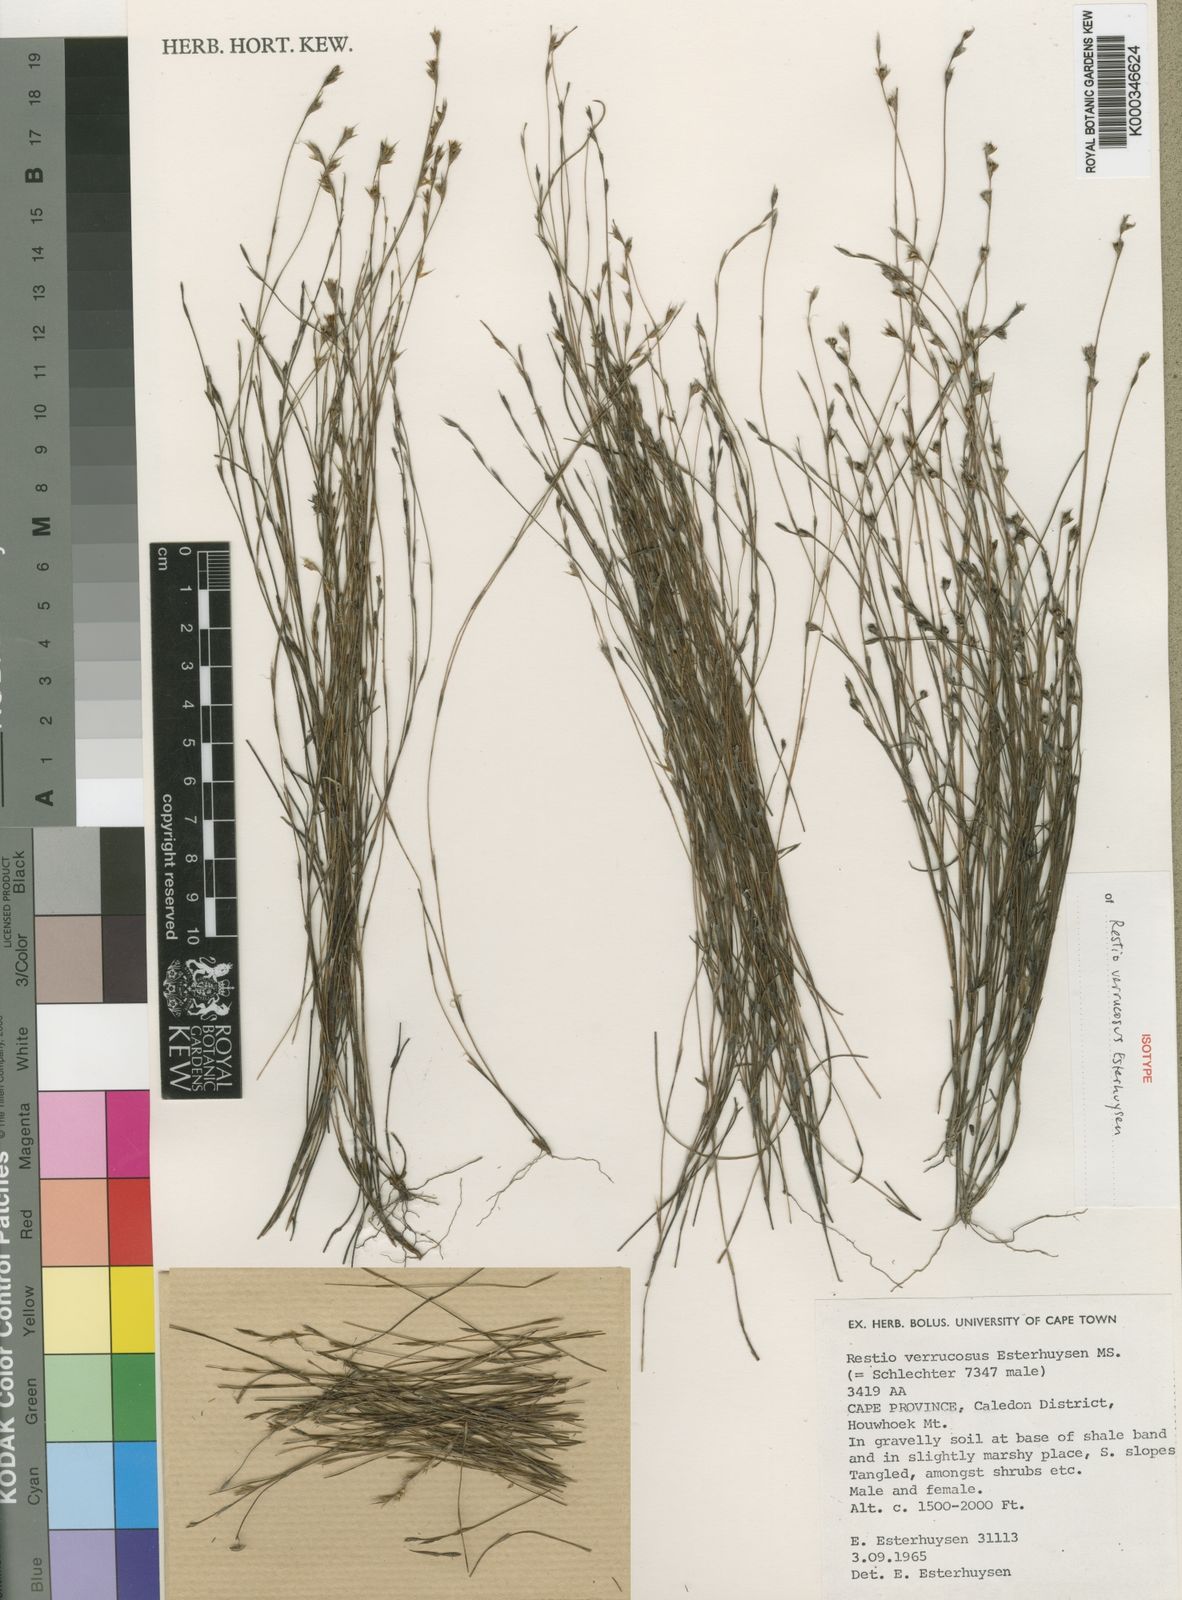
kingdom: Plantae
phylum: Tracheophyta
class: Liliopsida
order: Poales
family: Restionaceae
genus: Restio
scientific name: Restio verrucosus
